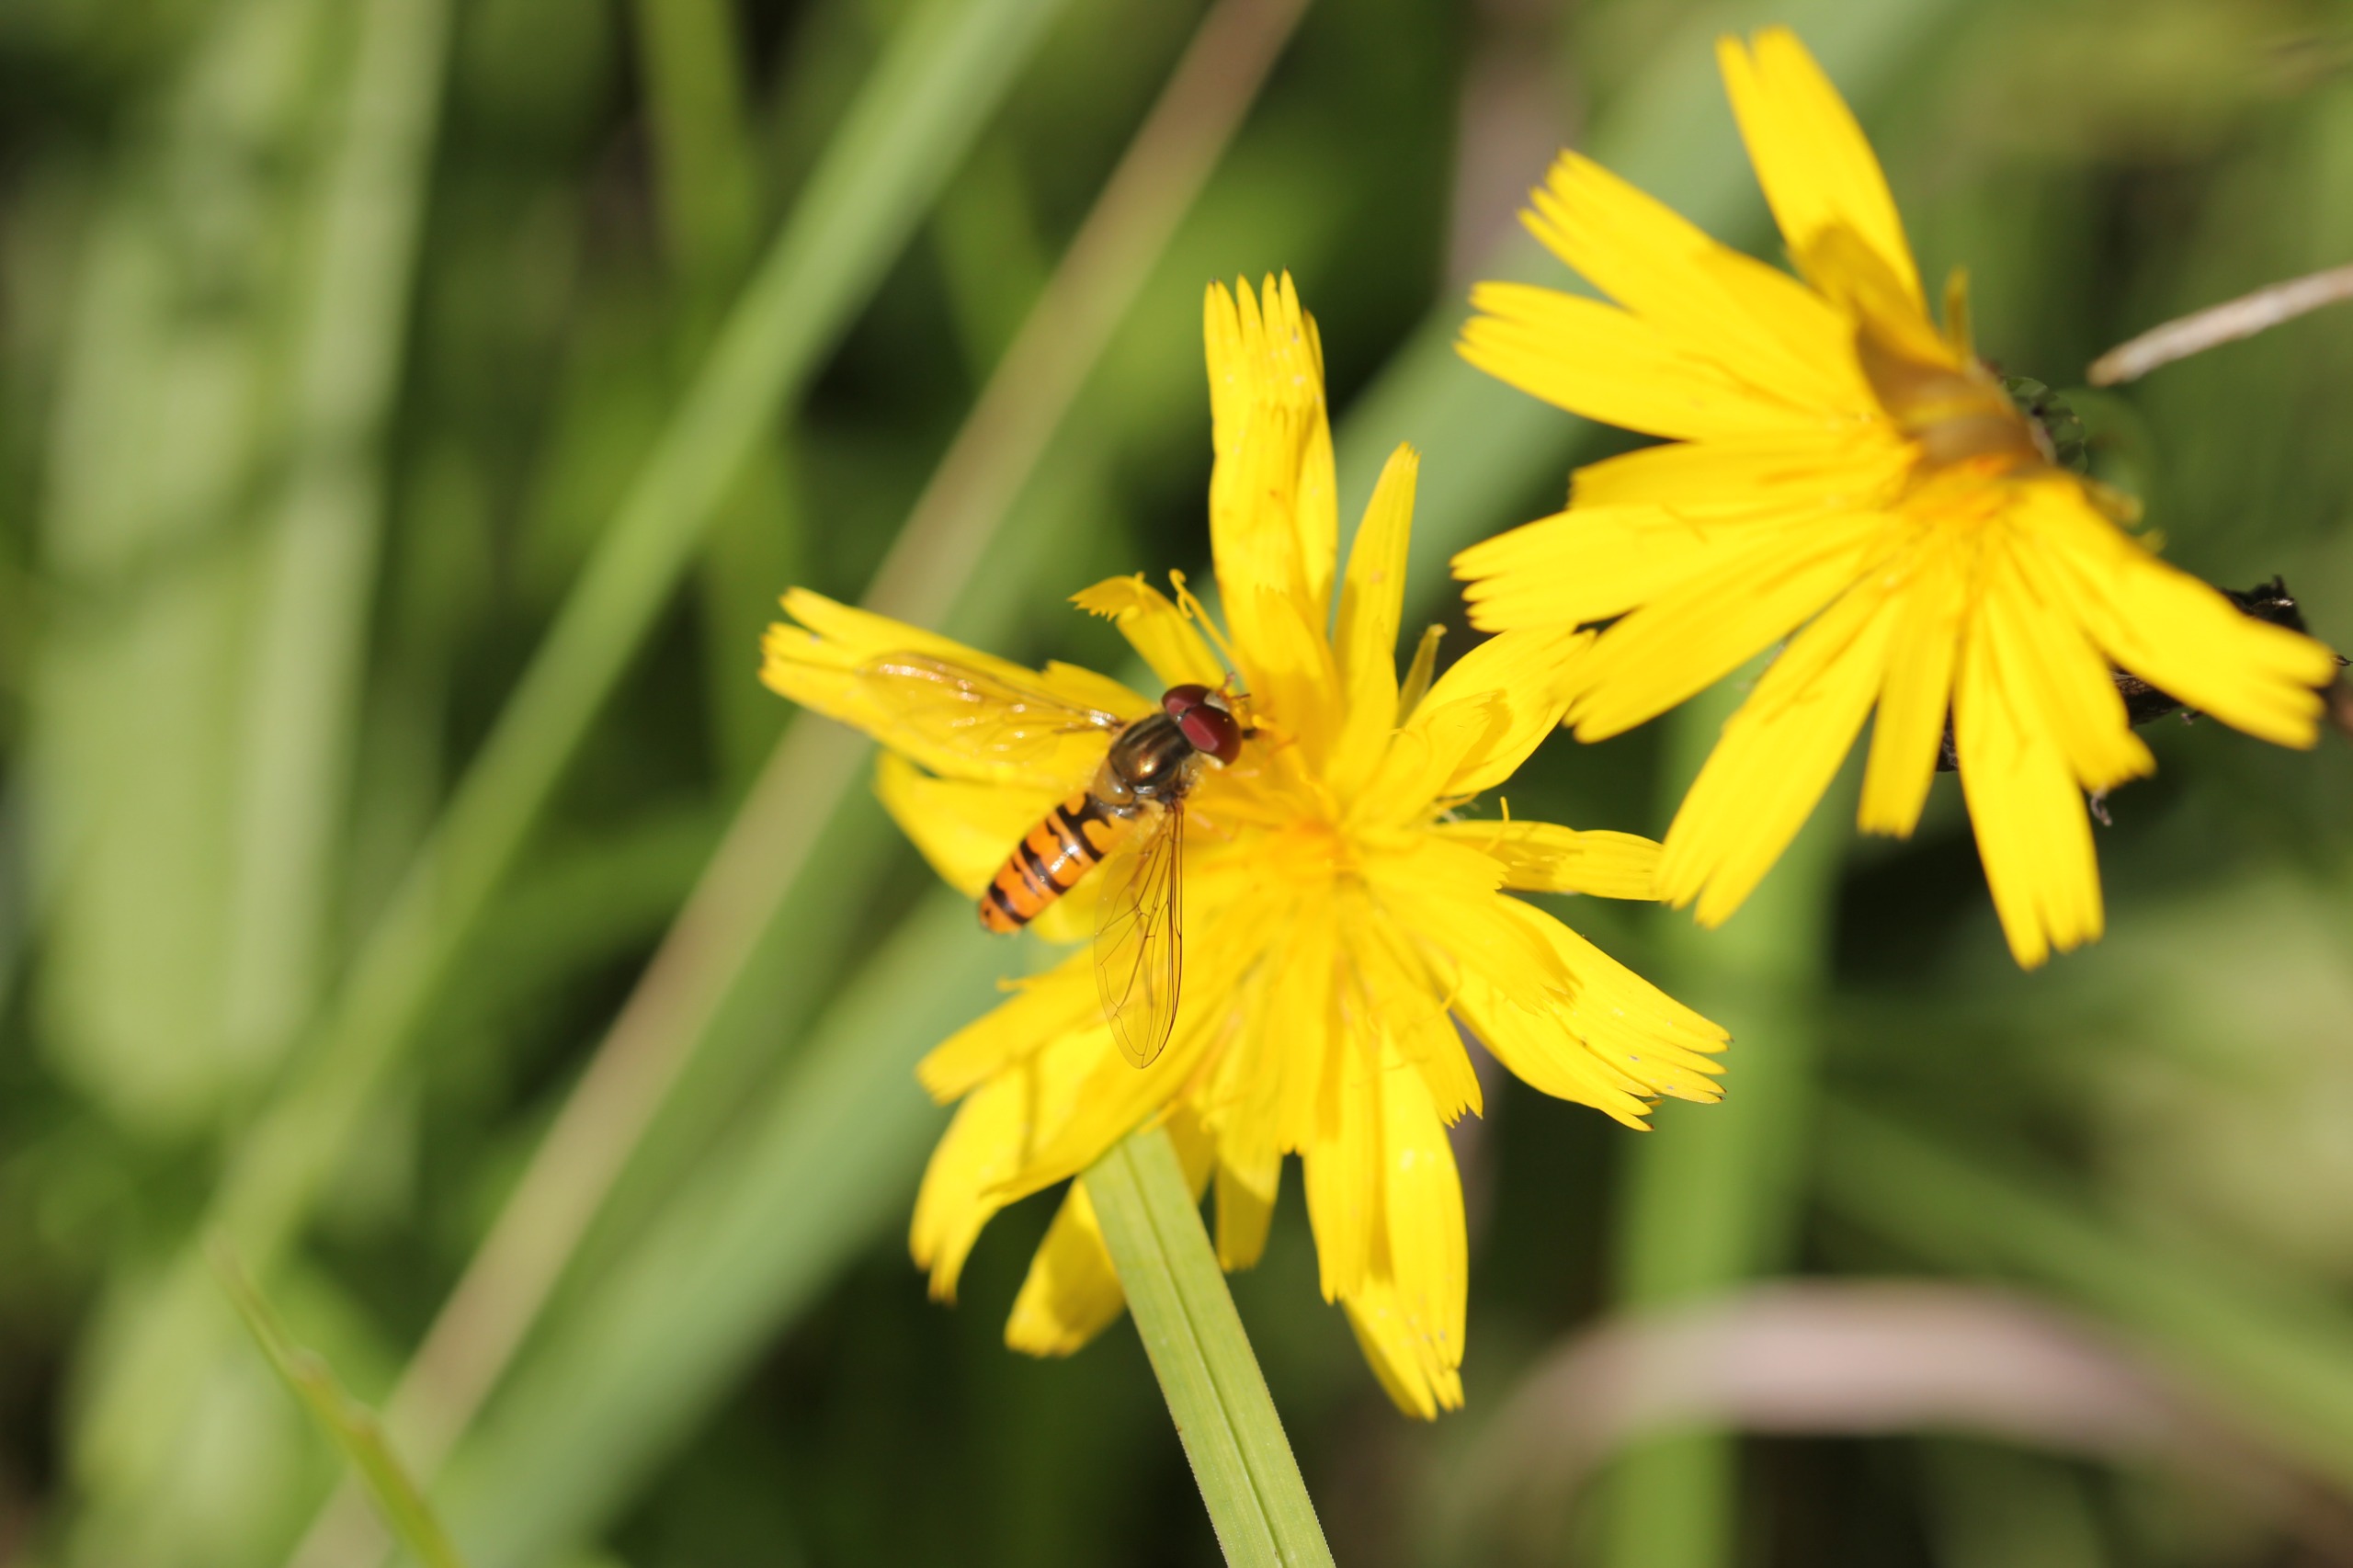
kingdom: Animalia
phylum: Arthropoda
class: Insecta
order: Diptera
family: Syrphidae
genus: Episyrphus
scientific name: Episyrphus balteatus
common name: Dobbeltbåndet svirreflue
